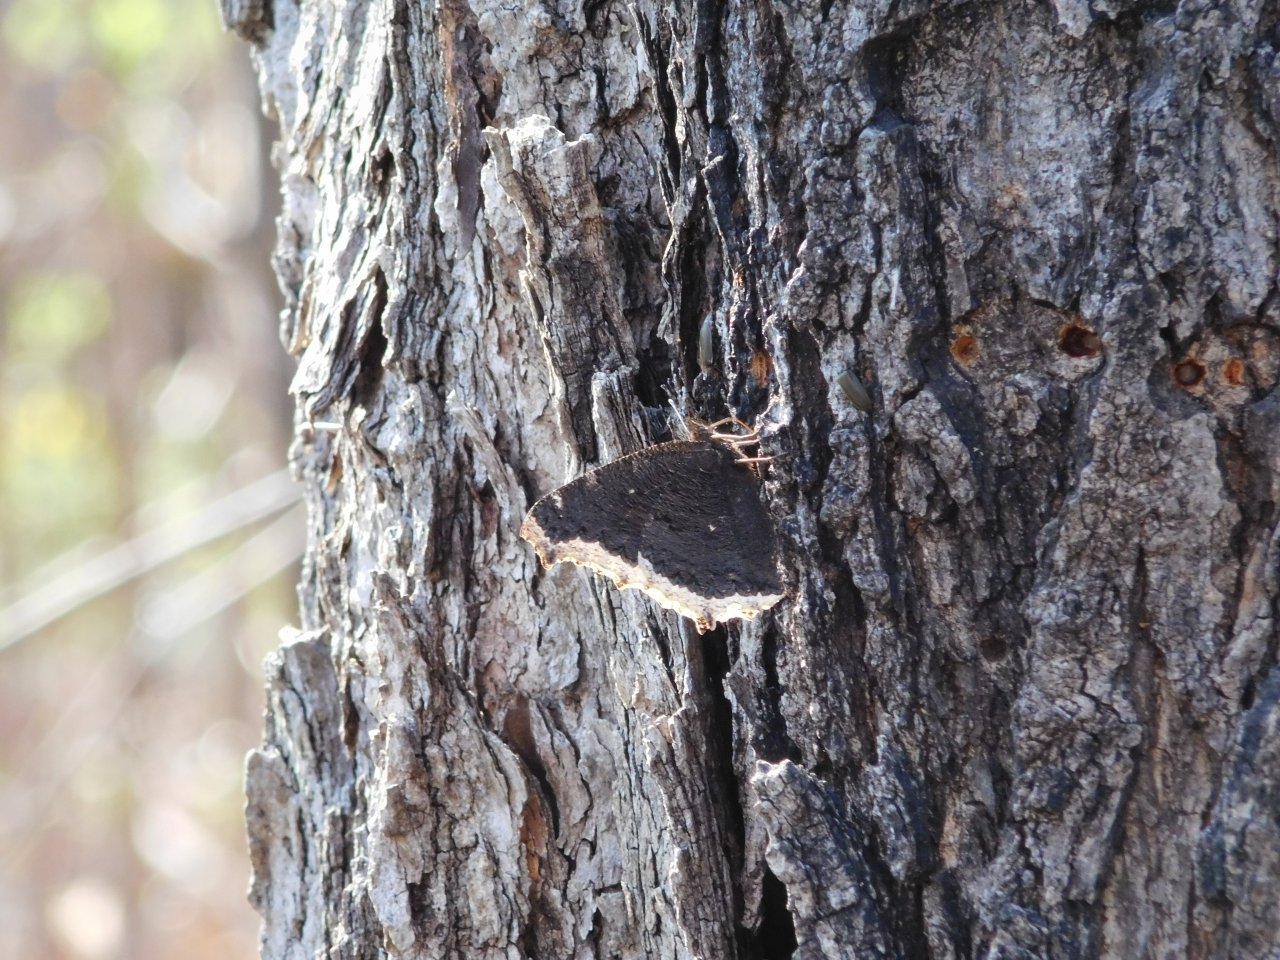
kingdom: Animalia
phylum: Arthropoda
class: Insecta
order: Lepidoptera
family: Nymphalidae
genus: Nymphalis
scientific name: Nymphalis antiopa
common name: Mourning Cloak
